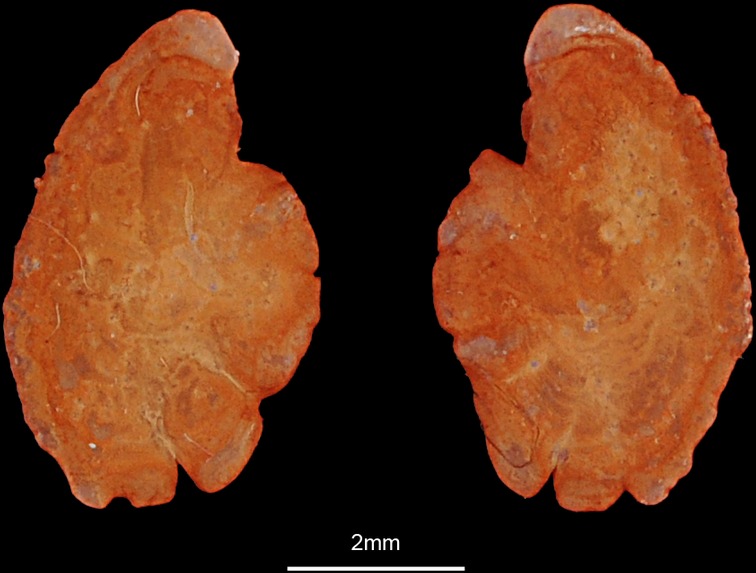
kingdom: Animalia
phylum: Chordata
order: Perciformes
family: Centrarchidae
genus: Lepomis
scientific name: Lepomis gibbosus
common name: Pumpkinseed
